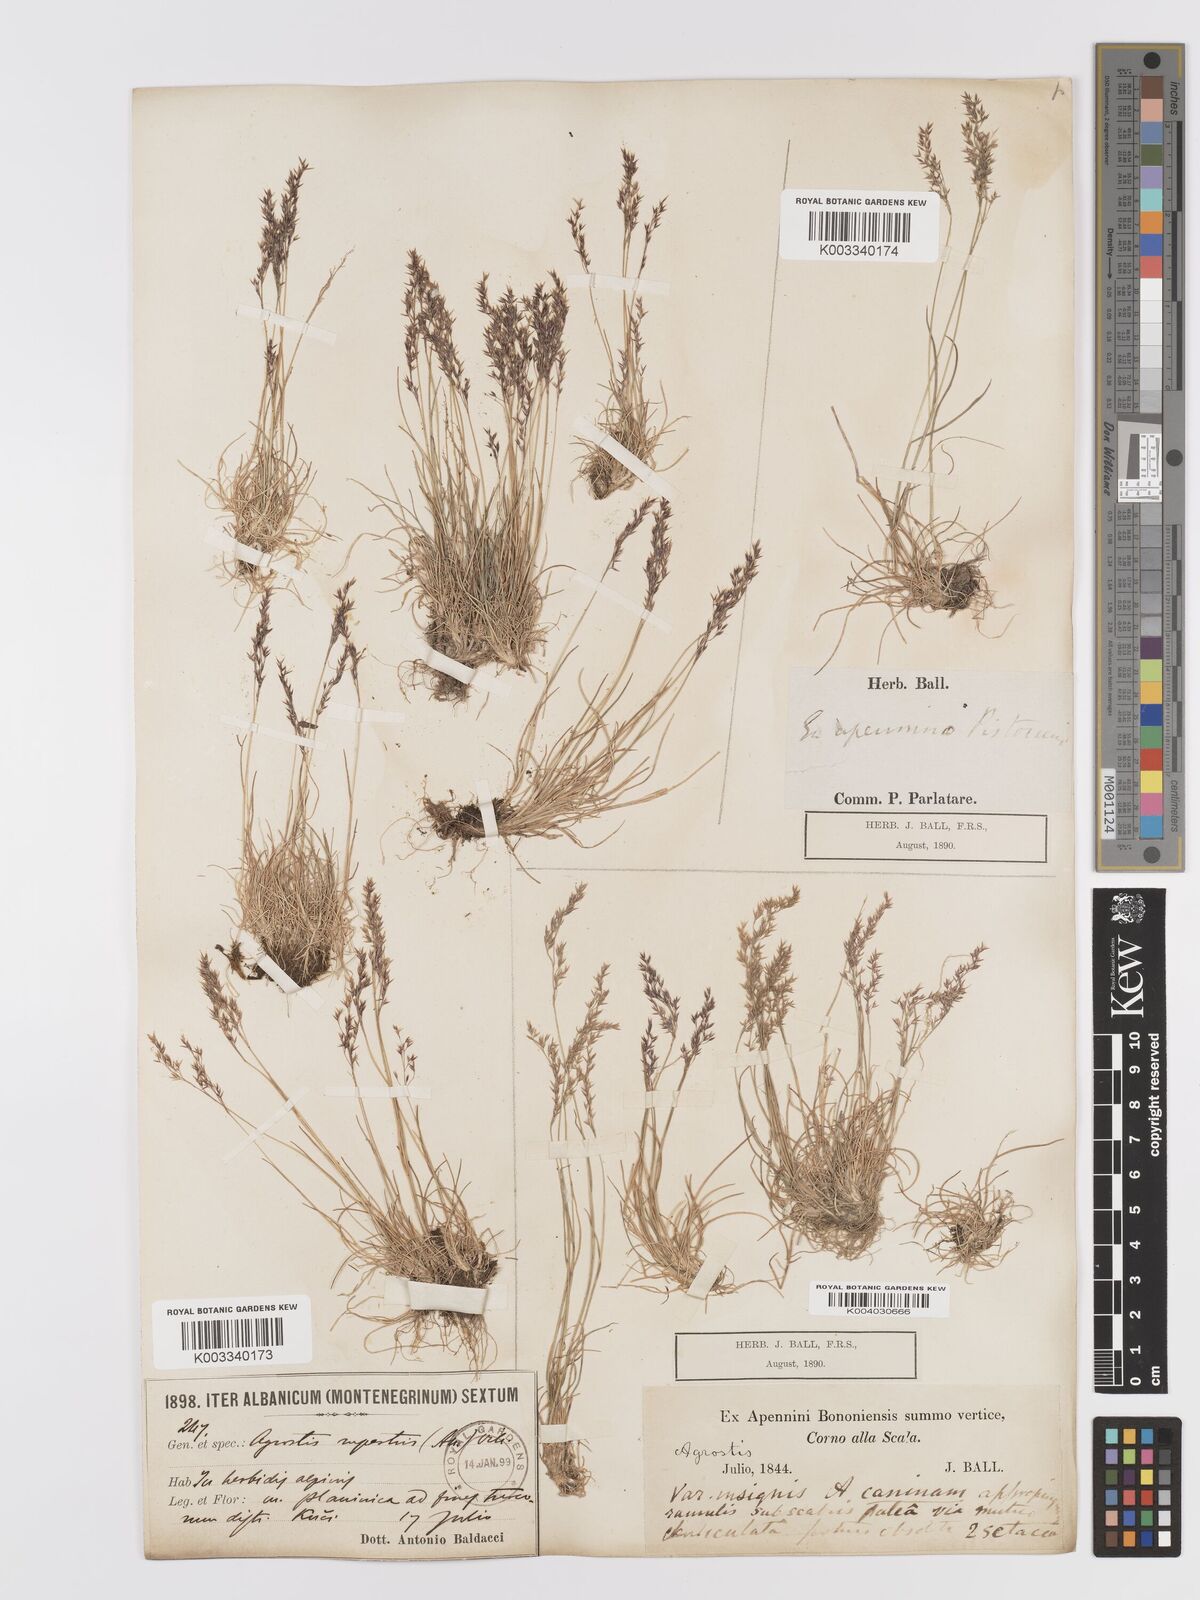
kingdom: Plantae
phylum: Tracheophyta
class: Liliopsida
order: Poales
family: Poaceae
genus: Agrostis
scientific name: Agrostis rupestris
